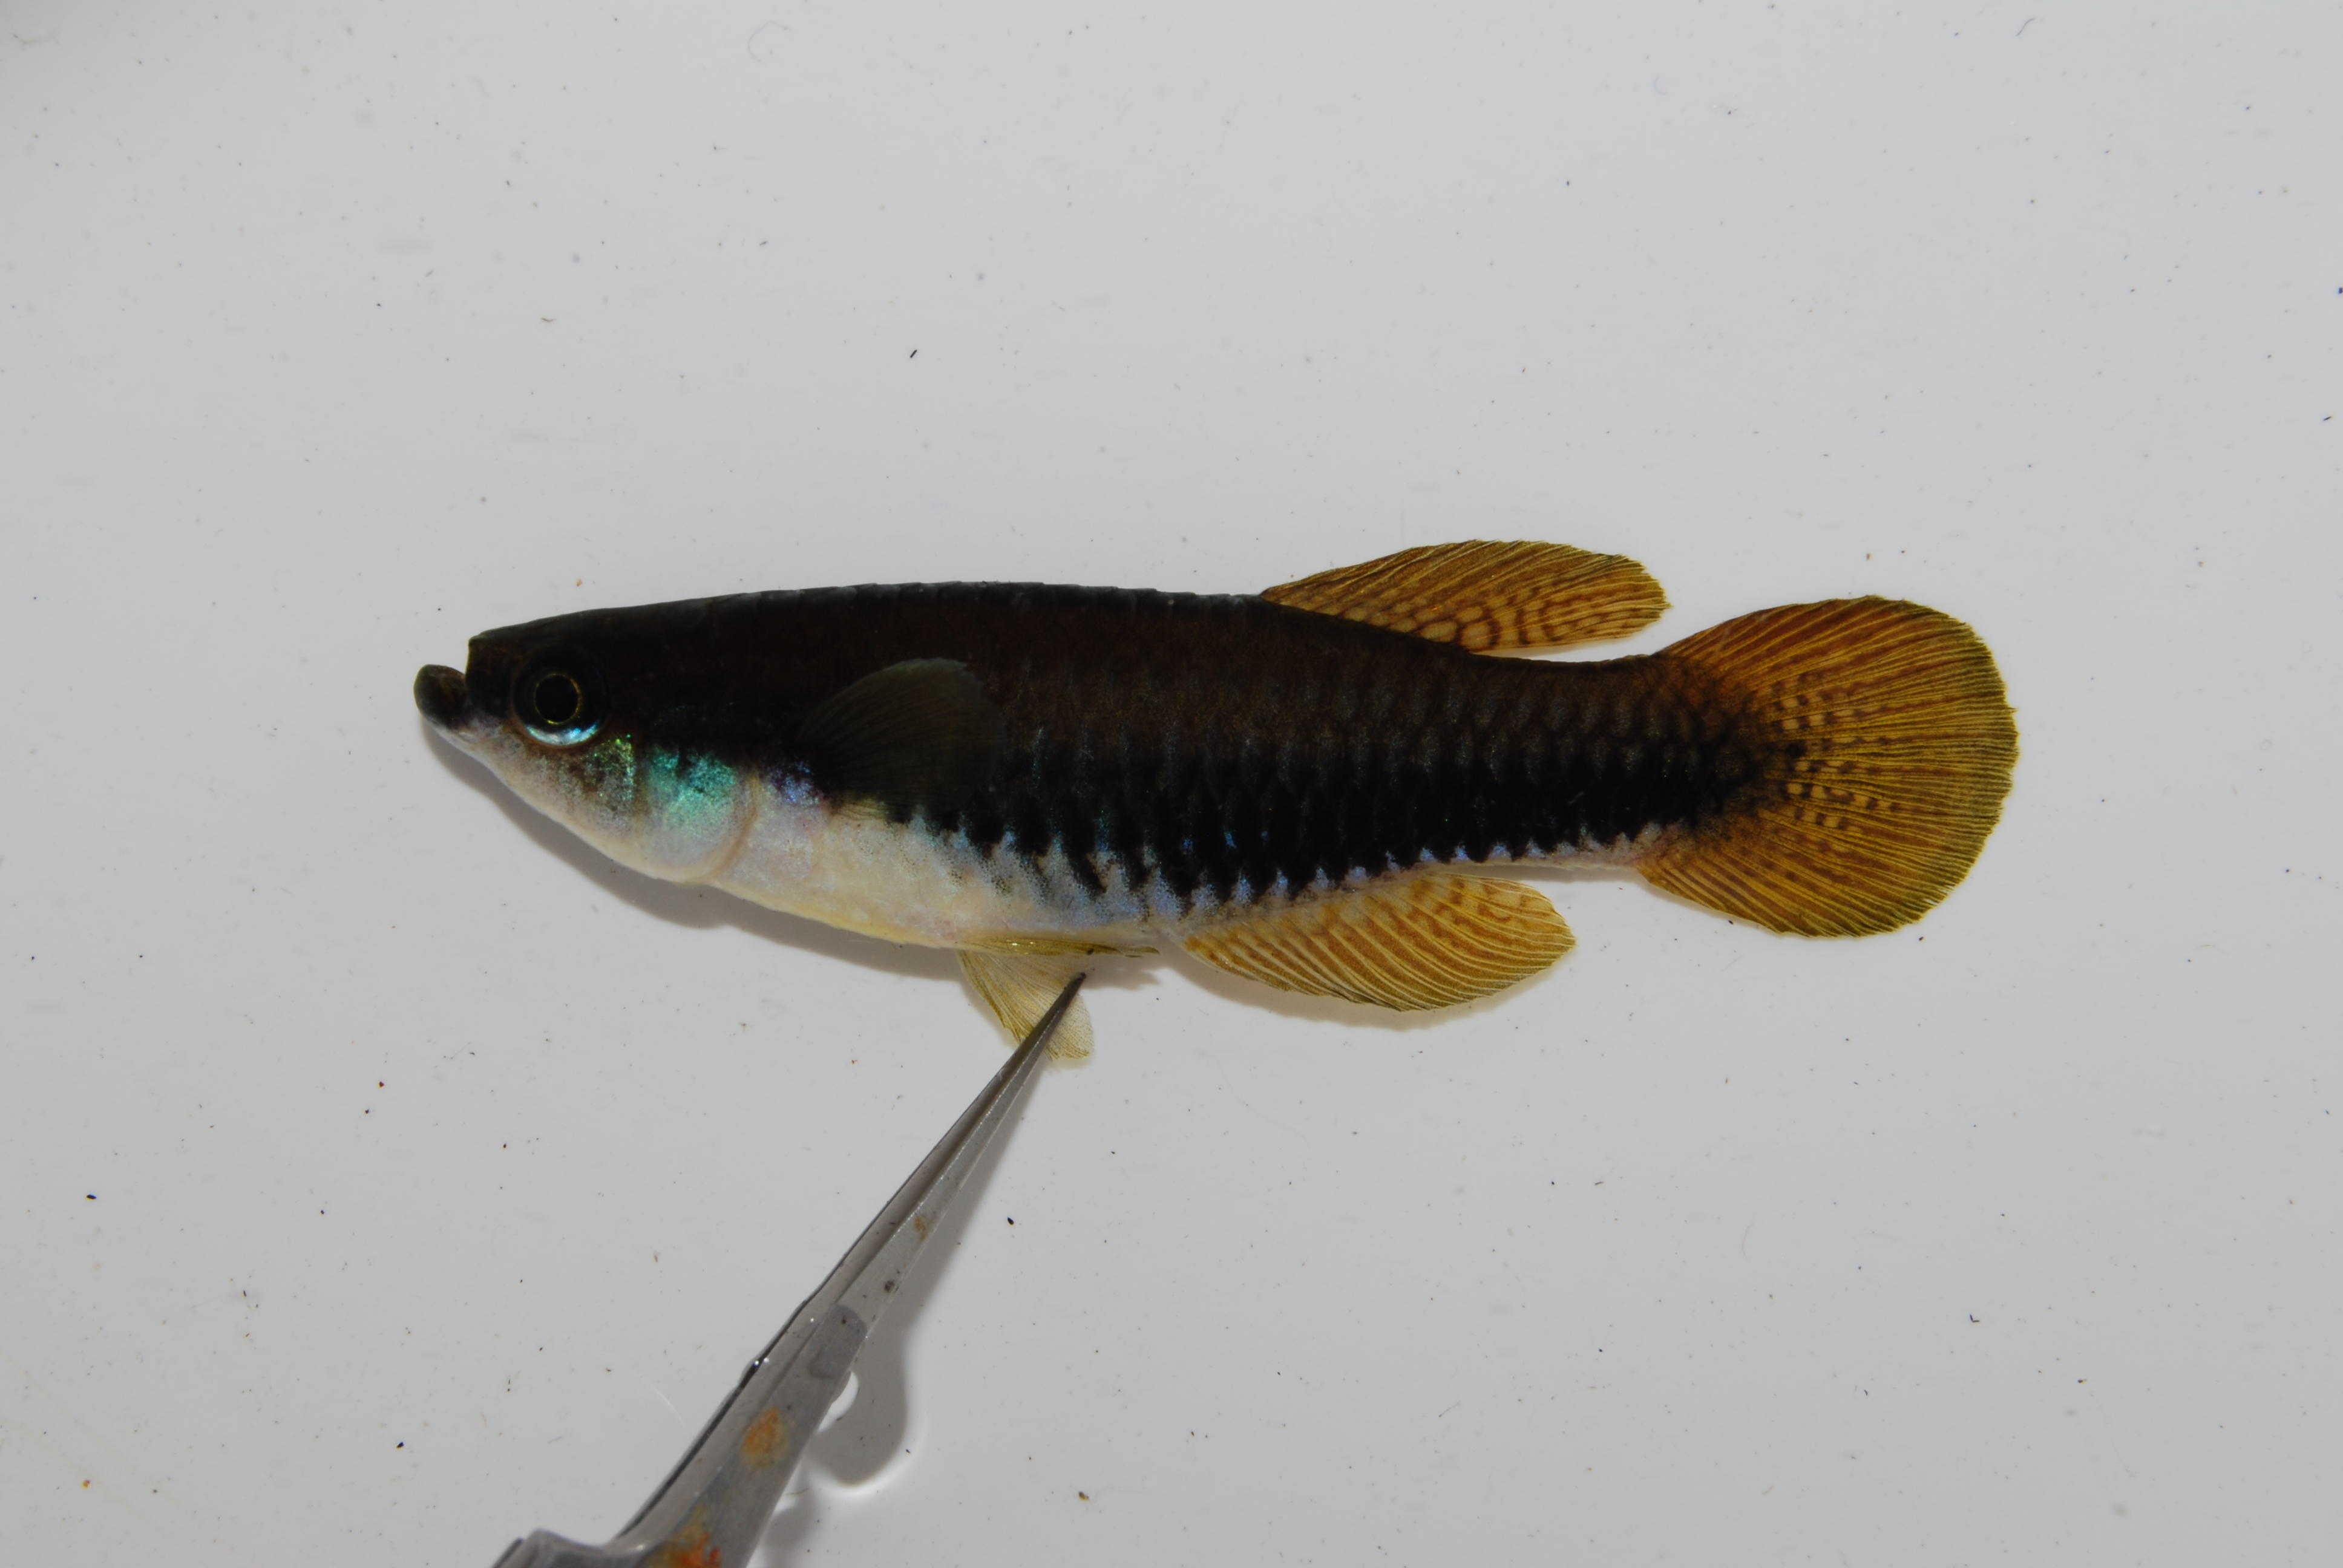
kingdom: Animalia
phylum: Chordata
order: Cyprinodontiformes
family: Poeciliidae
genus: Lacustricola
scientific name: Lacustricola pygmaeus
